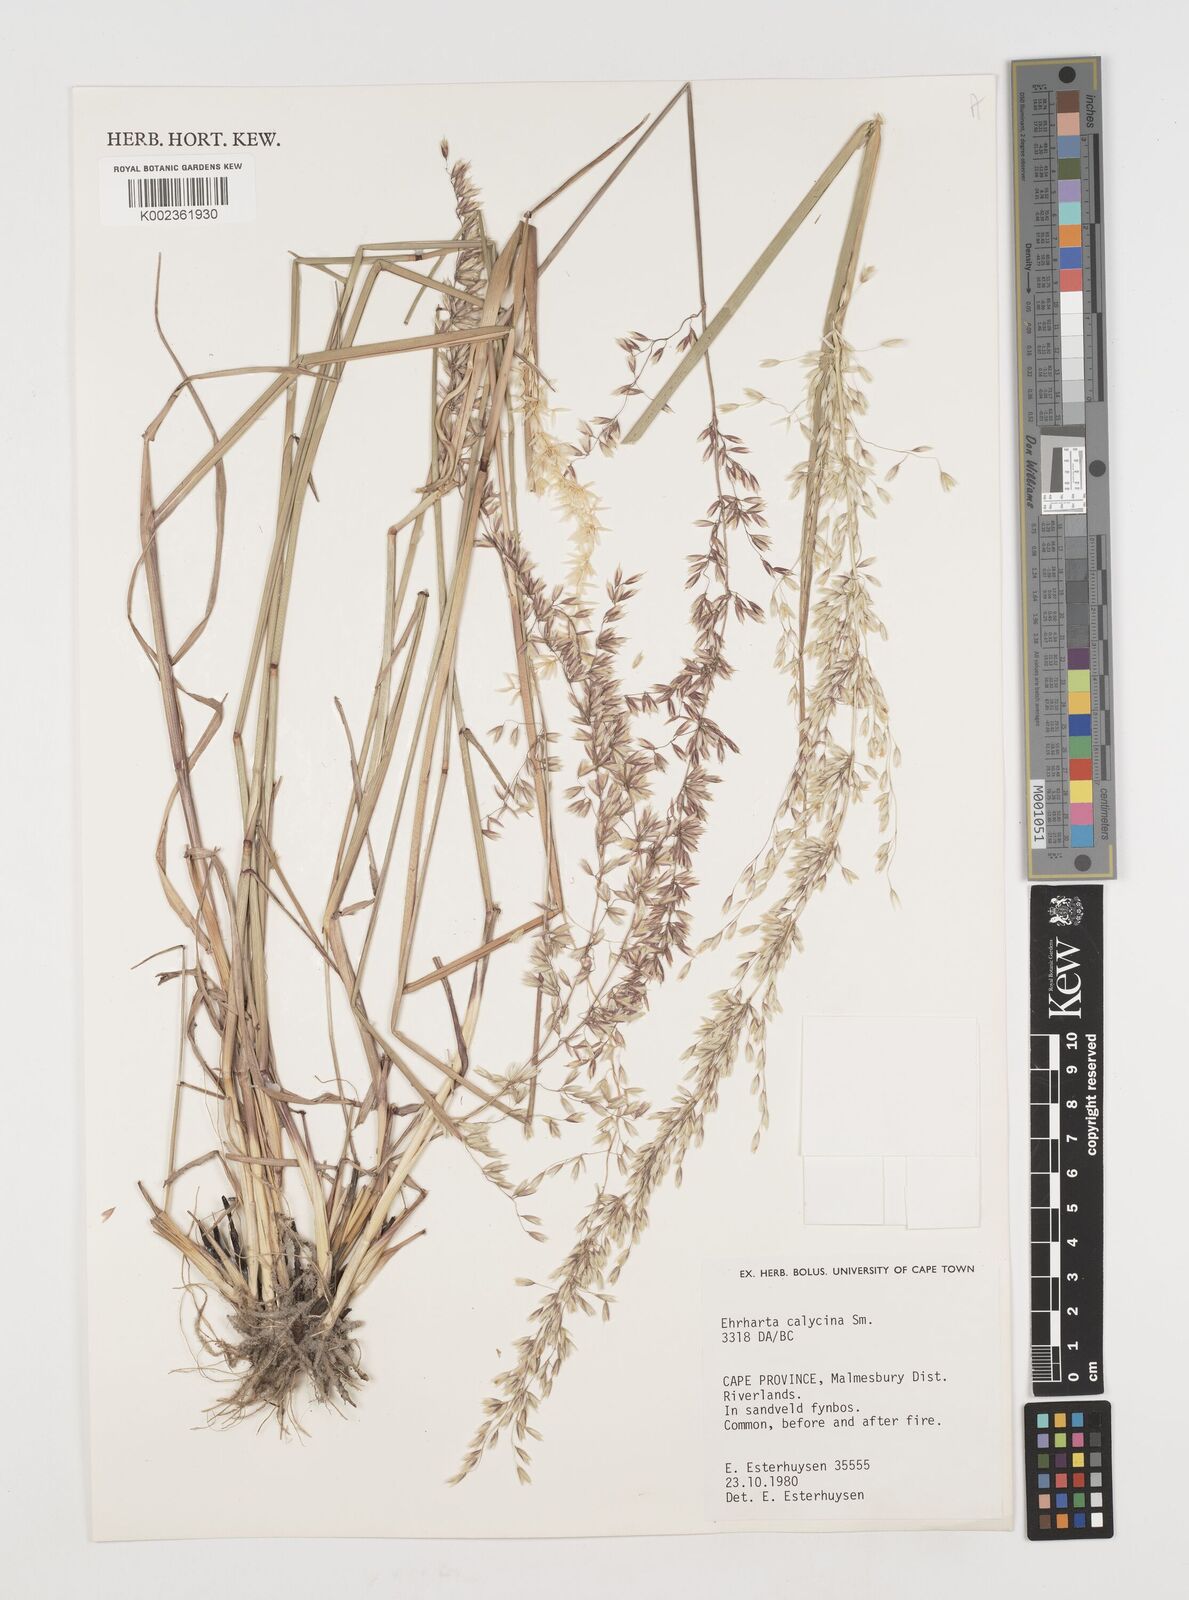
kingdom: Plantae
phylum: Tracheophyta
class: Liliopsida
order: Poales
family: Poaceae
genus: Ehrharta
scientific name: Ehrharta calycina
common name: Perennial veldtgrass
